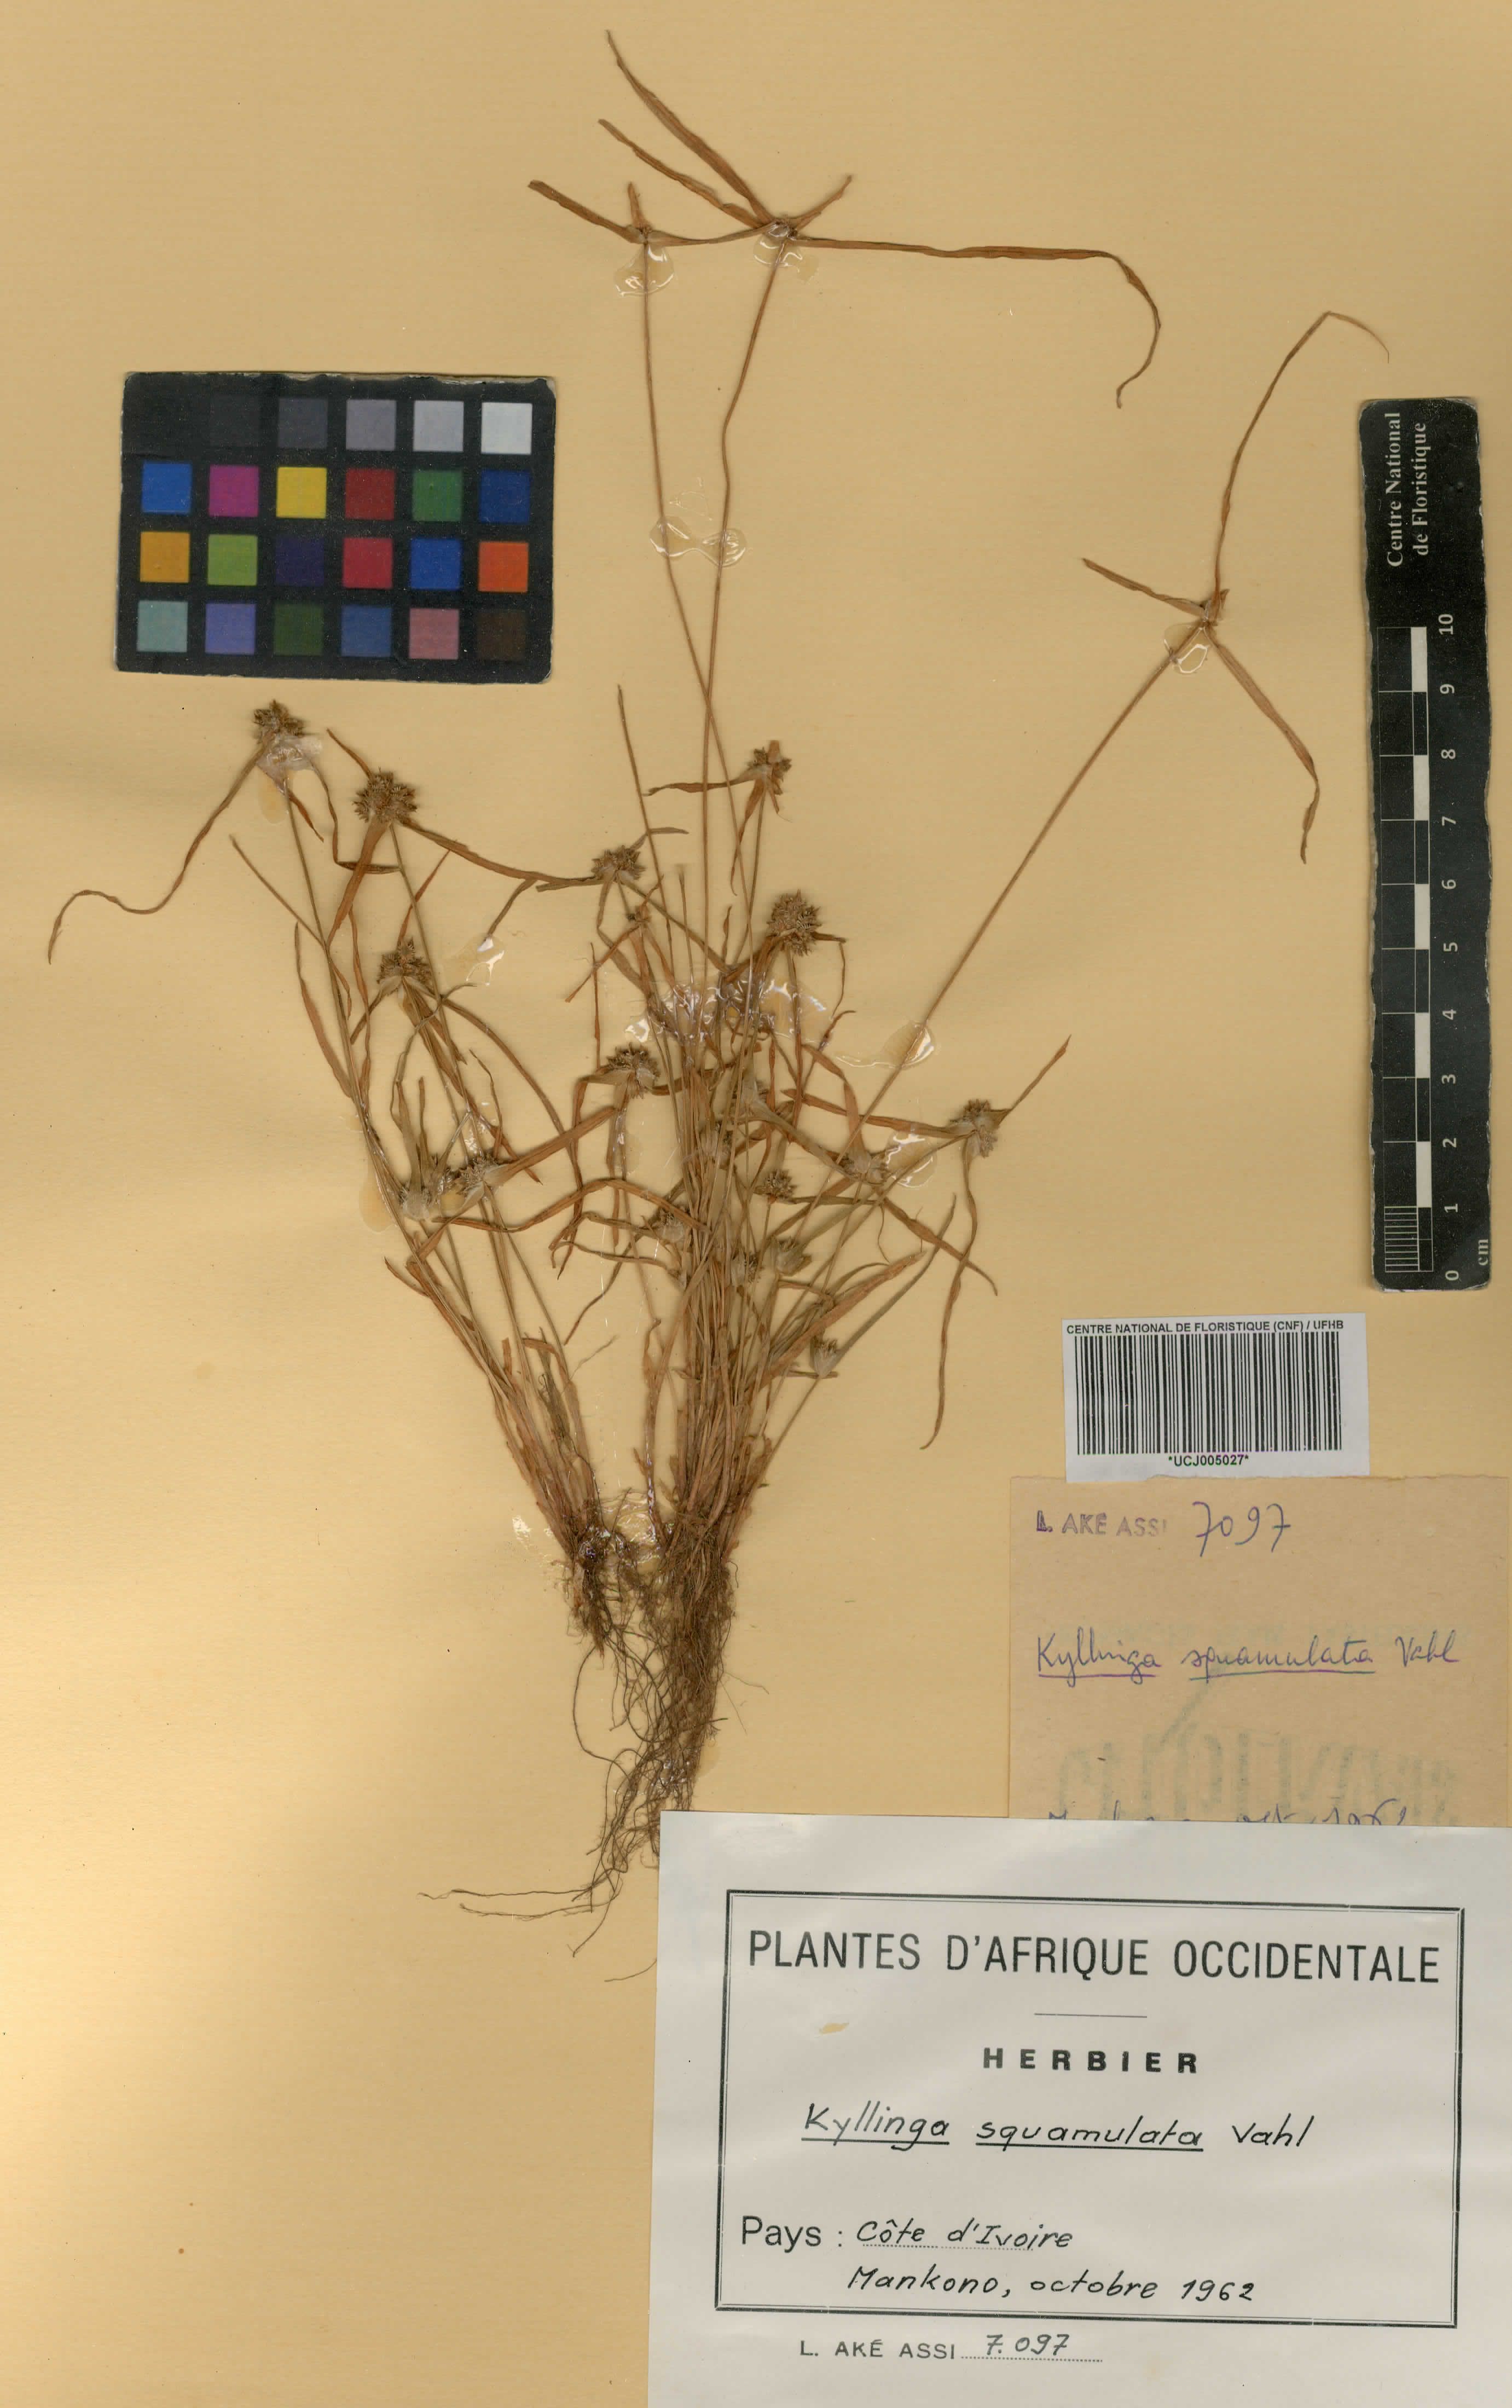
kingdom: Plantae
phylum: Tracheophyta
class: Liliopsida
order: Poales
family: Cyperaceae
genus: Cyperus
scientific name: Cyperus metzii
